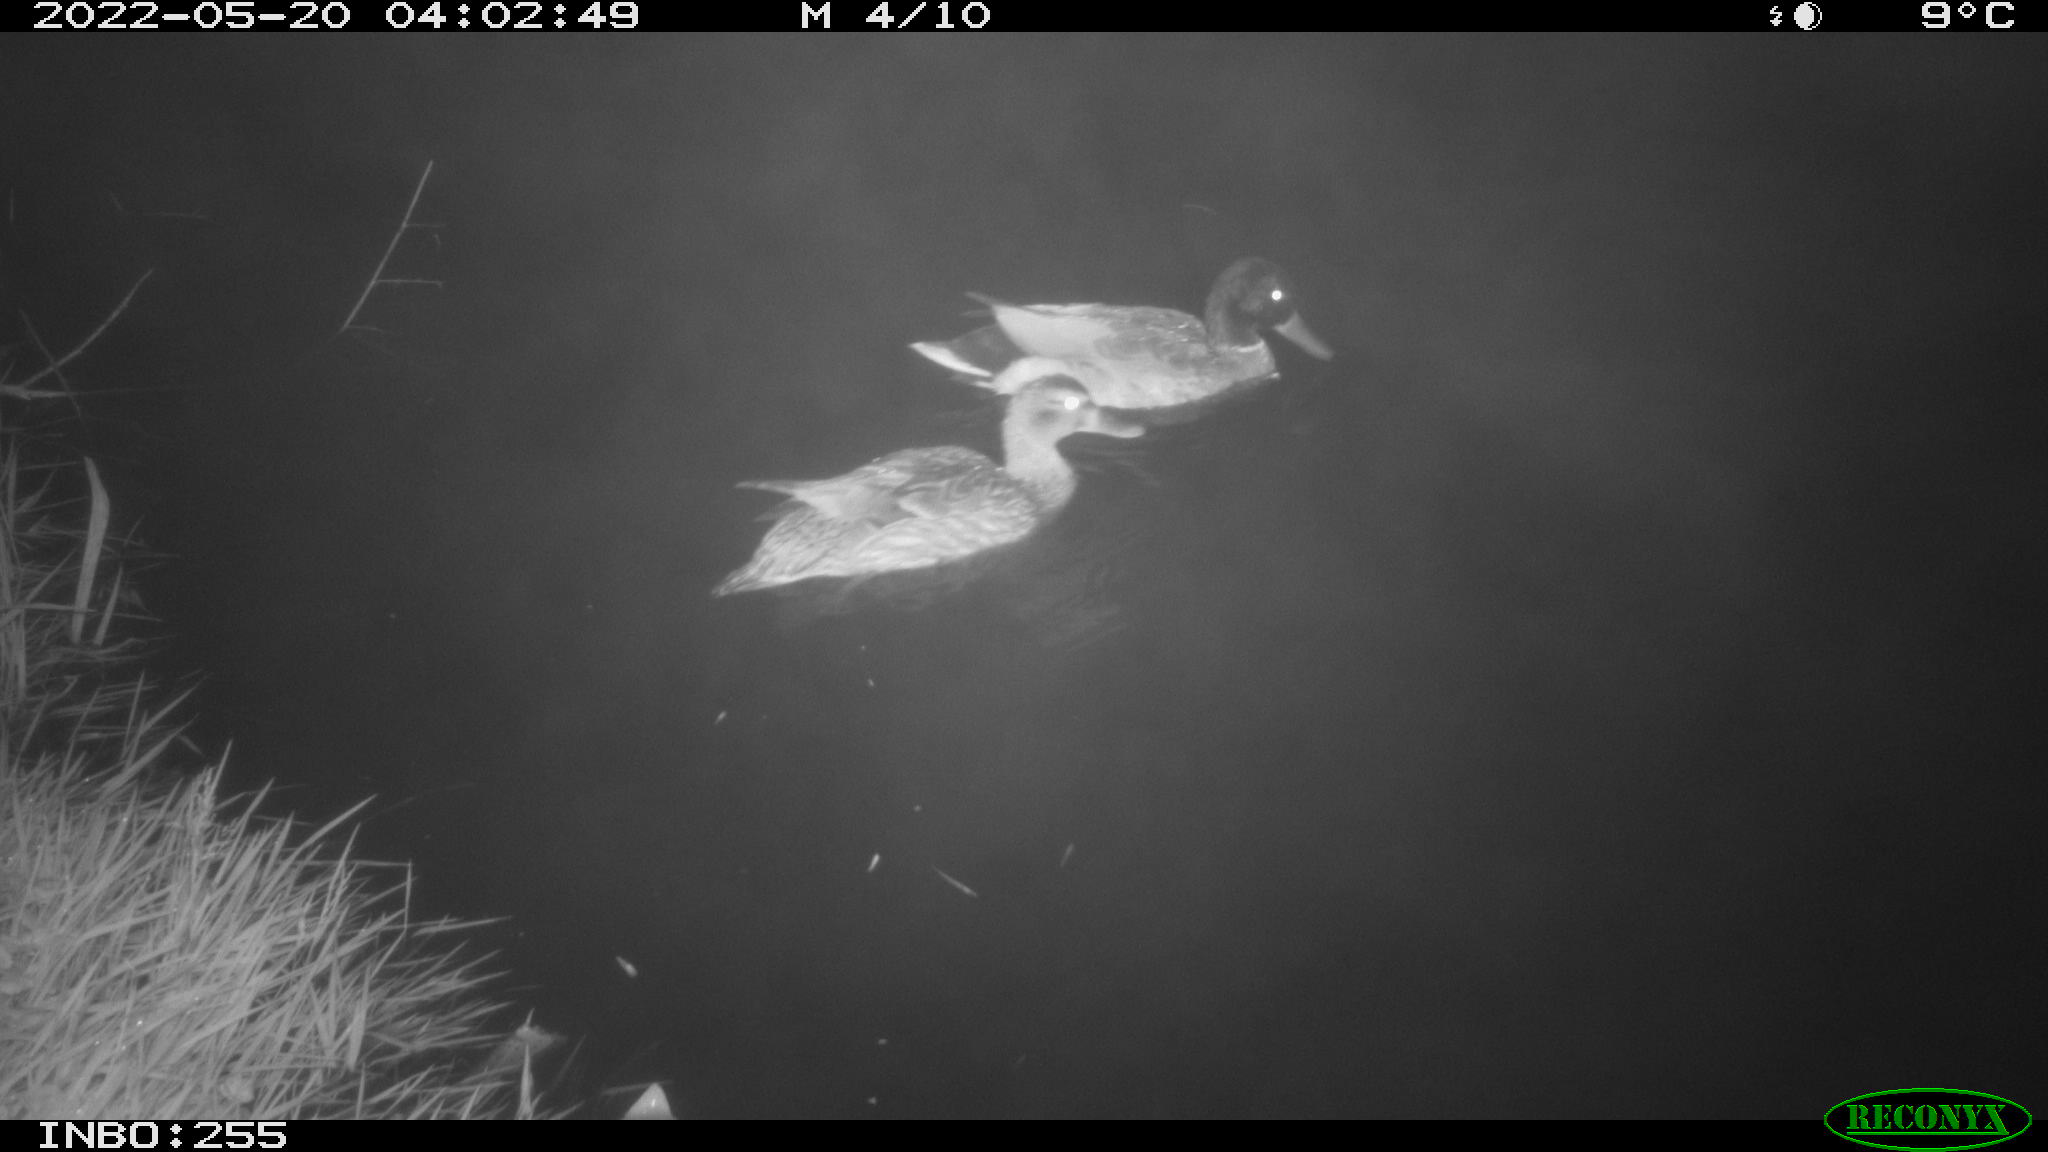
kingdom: Animalia
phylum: Chordata
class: Aves
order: Anseriformes
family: Anatidae
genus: Mareca
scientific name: Mareca strepera
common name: Gadwall
